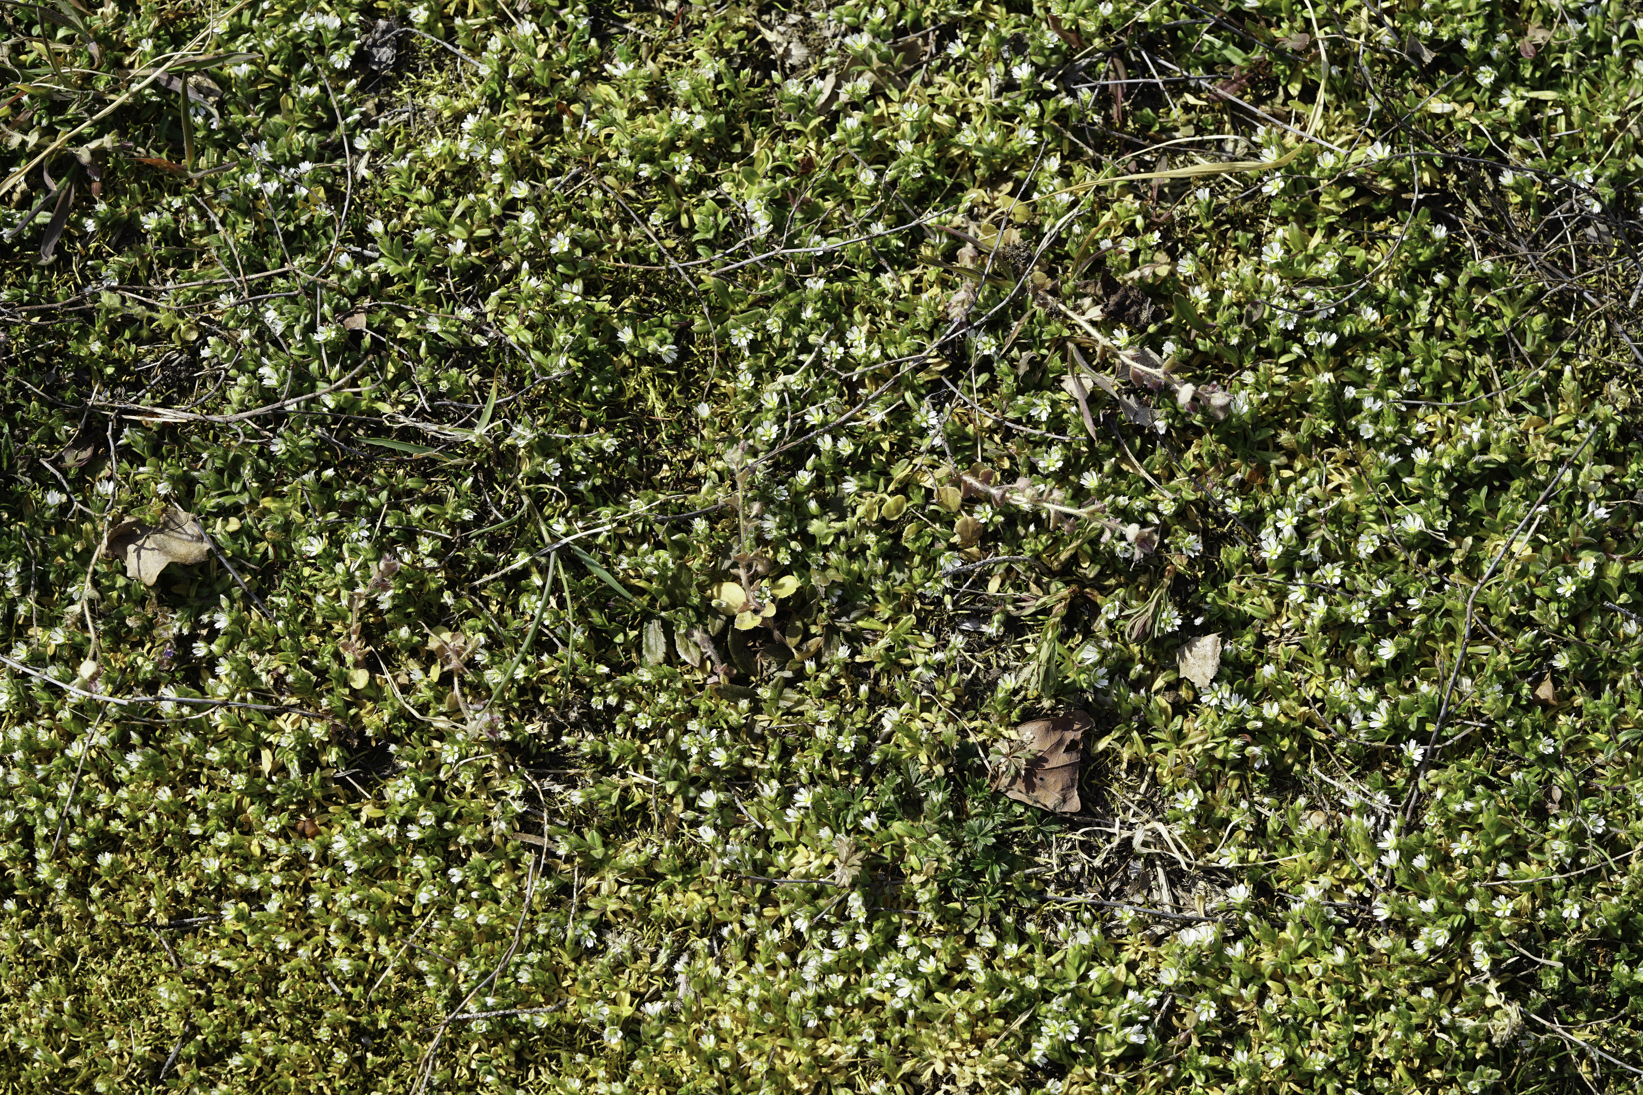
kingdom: Plantae
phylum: Tracheophyta
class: Magnoliopsida
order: Caryophyllales
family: Caryophyllaceae
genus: Cerastium
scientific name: Cerastium semidecandrum
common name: Little mouse-ear
